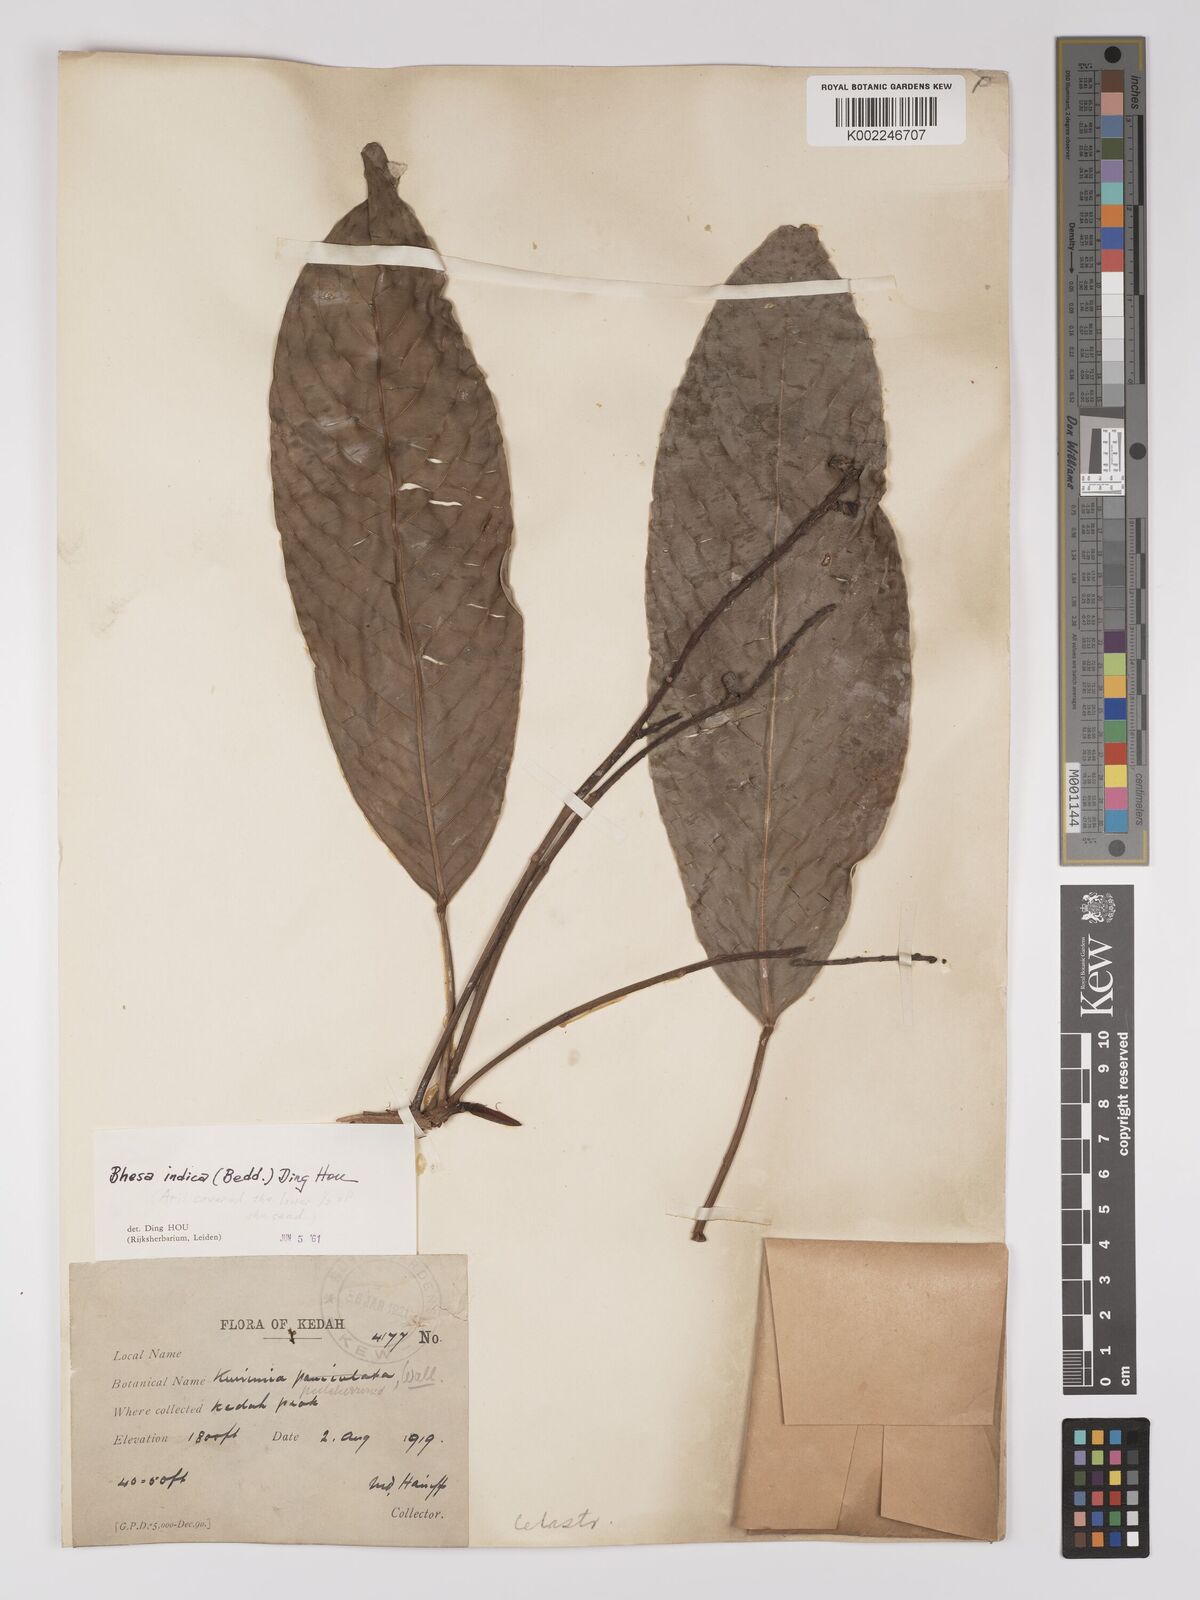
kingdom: Plantae
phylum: Tracheophyta
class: Magnoliopsida
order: Malpighiales
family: Centroplacaceae
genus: Bhesa
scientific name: Bhesa indica
